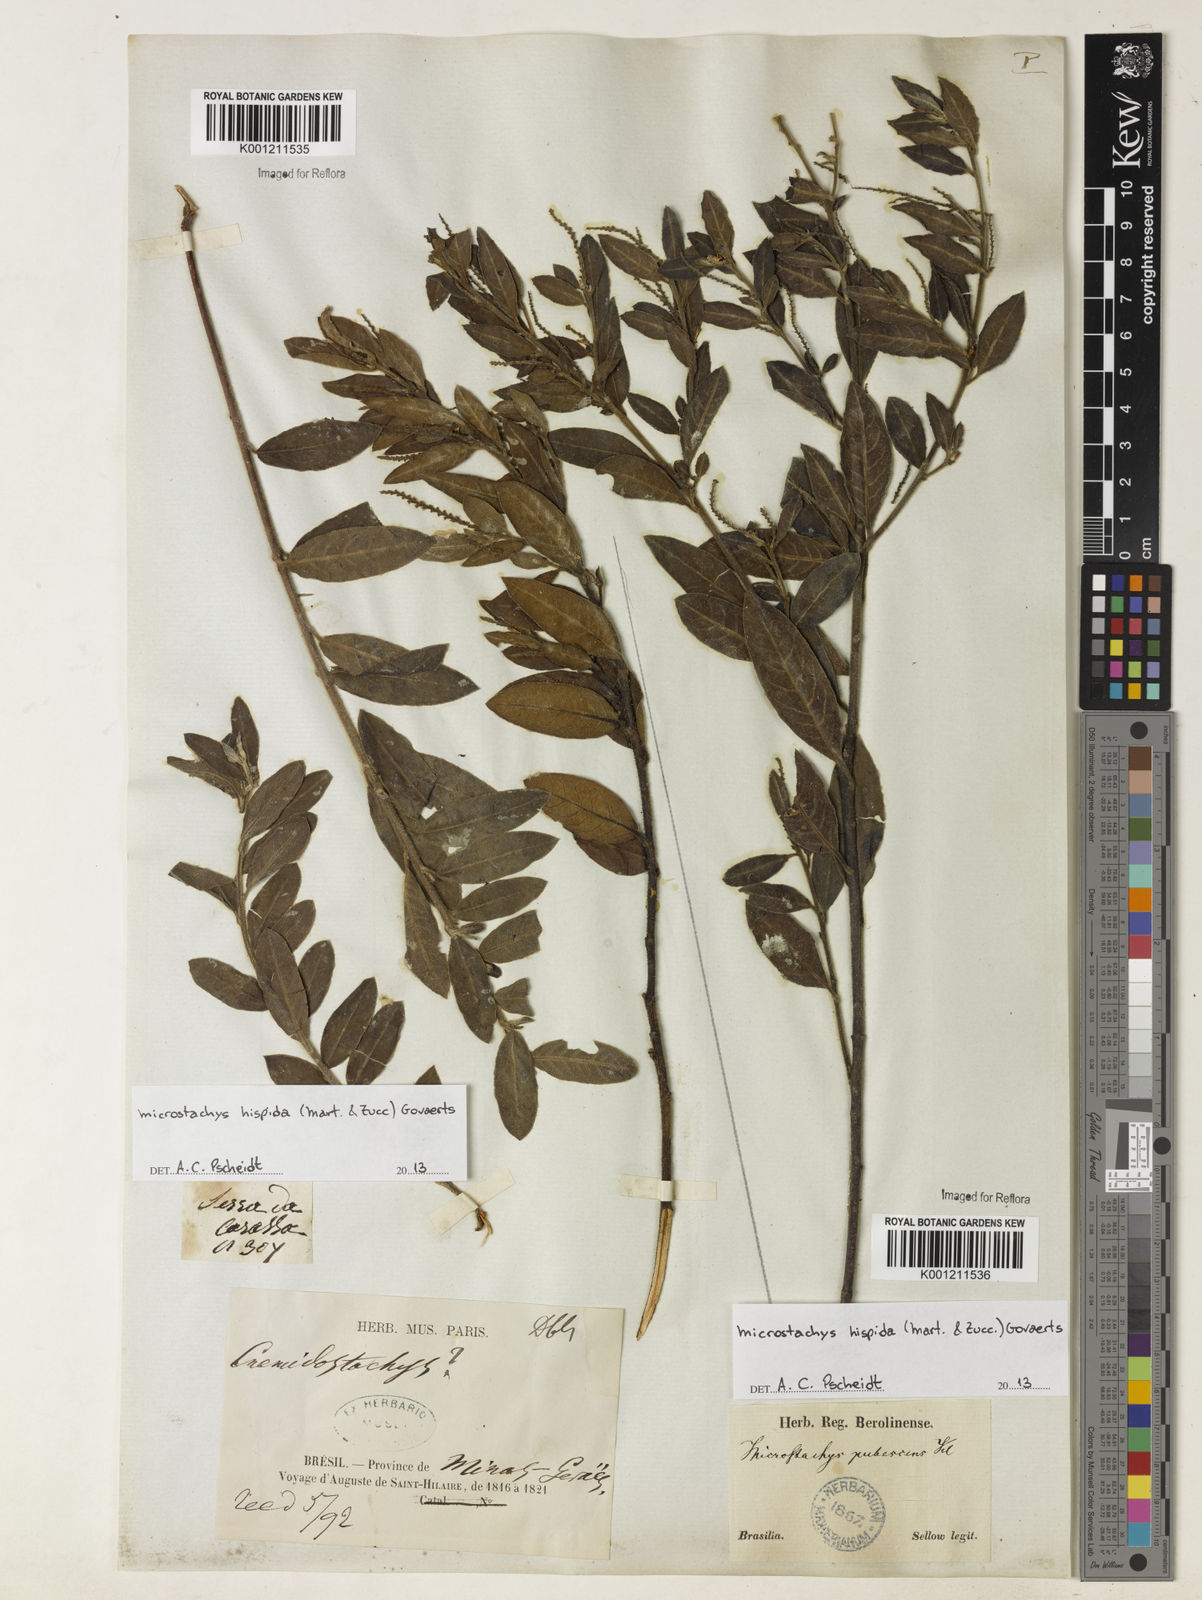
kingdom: Plantae
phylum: Tracheophyta
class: Magnoliopsida
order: Malpighiales
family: Euphorbiaceae
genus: Microstachys
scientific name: Microstachys hispida
